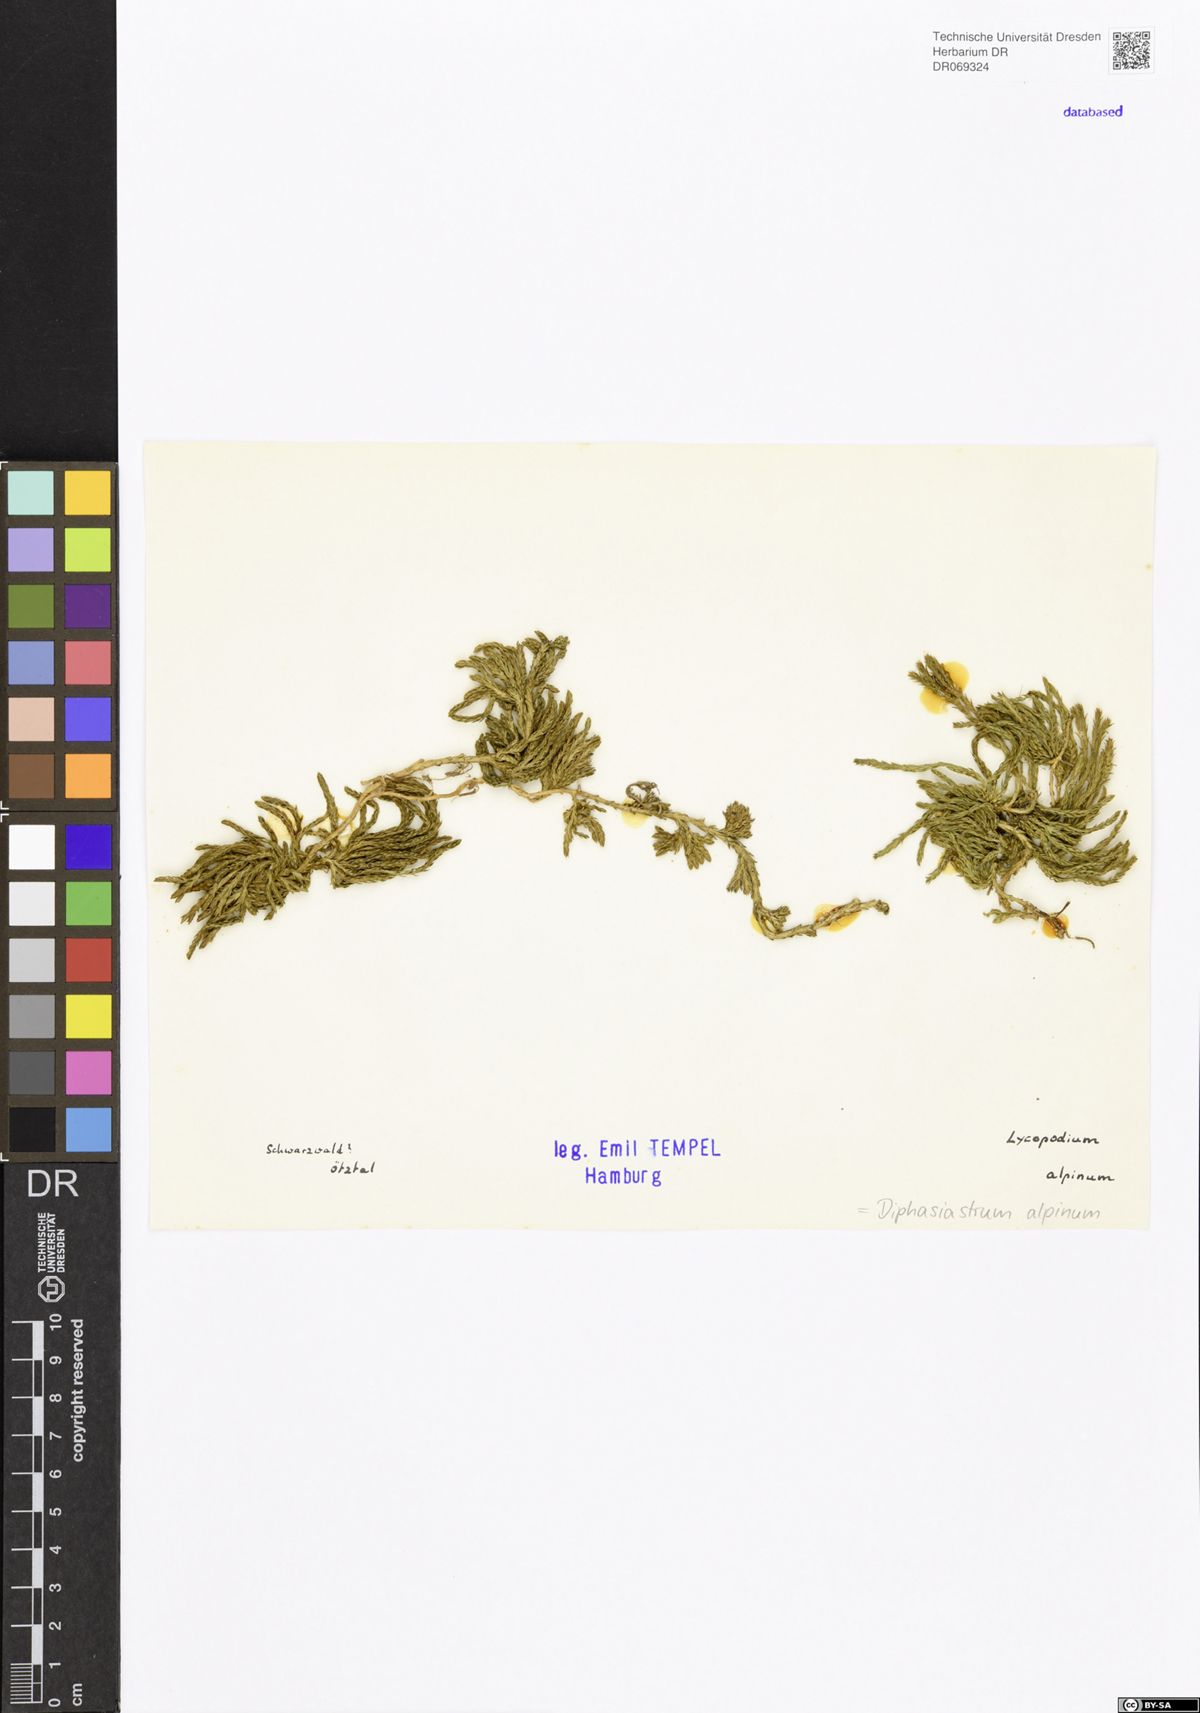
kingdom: Plantae
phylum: Tracheophyta
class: Lycopodiopsida
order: Lycopodiales
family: Lycopodiaceae
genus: Diphasiastrum
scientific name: Diphasiastrum alpinum
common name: Alpine clubmoss
